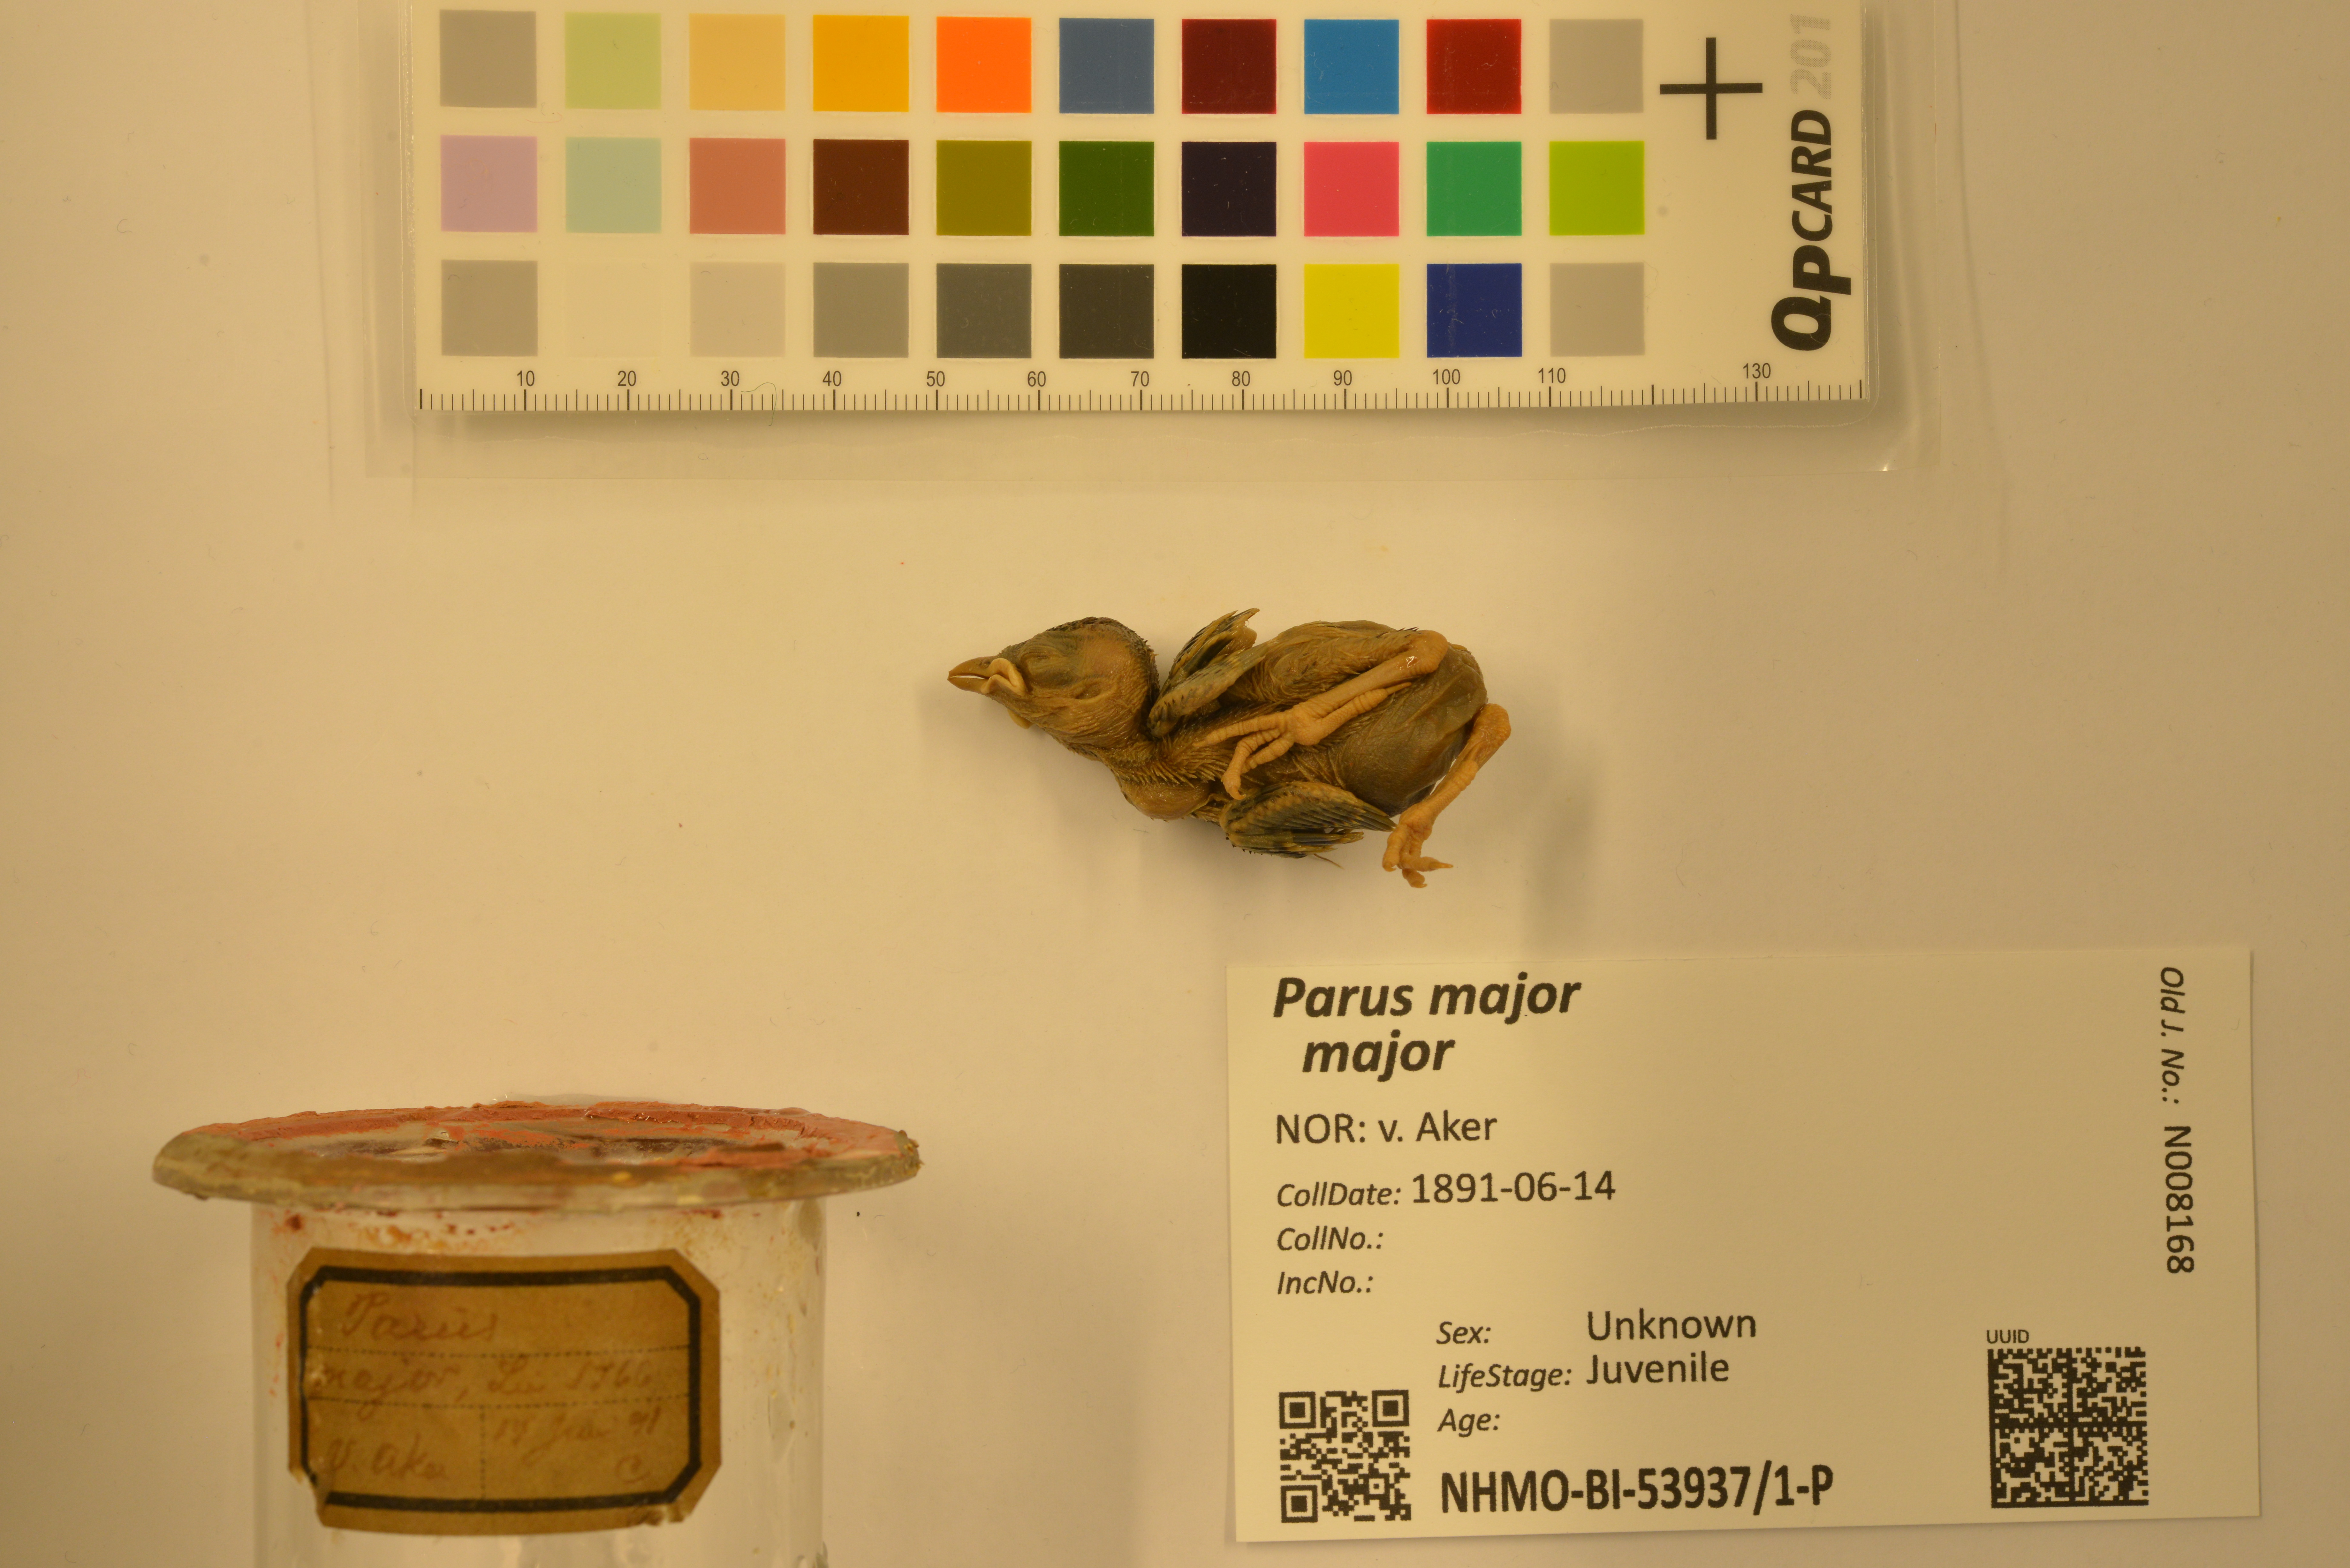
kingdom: Animalia
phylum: Chordata
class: Aves
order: Passeriformes
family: Paridae
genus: Parus
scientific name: Parus major
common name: Great tit
